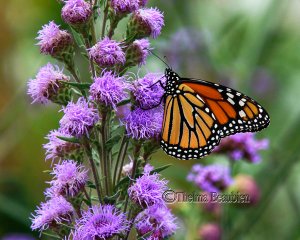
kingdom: Animalia
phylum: Arthropoda
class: Insecta
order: Lepidoptera
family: Nymphalidae
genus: Danaus
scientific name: Danaus plexippus
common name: Monarch
